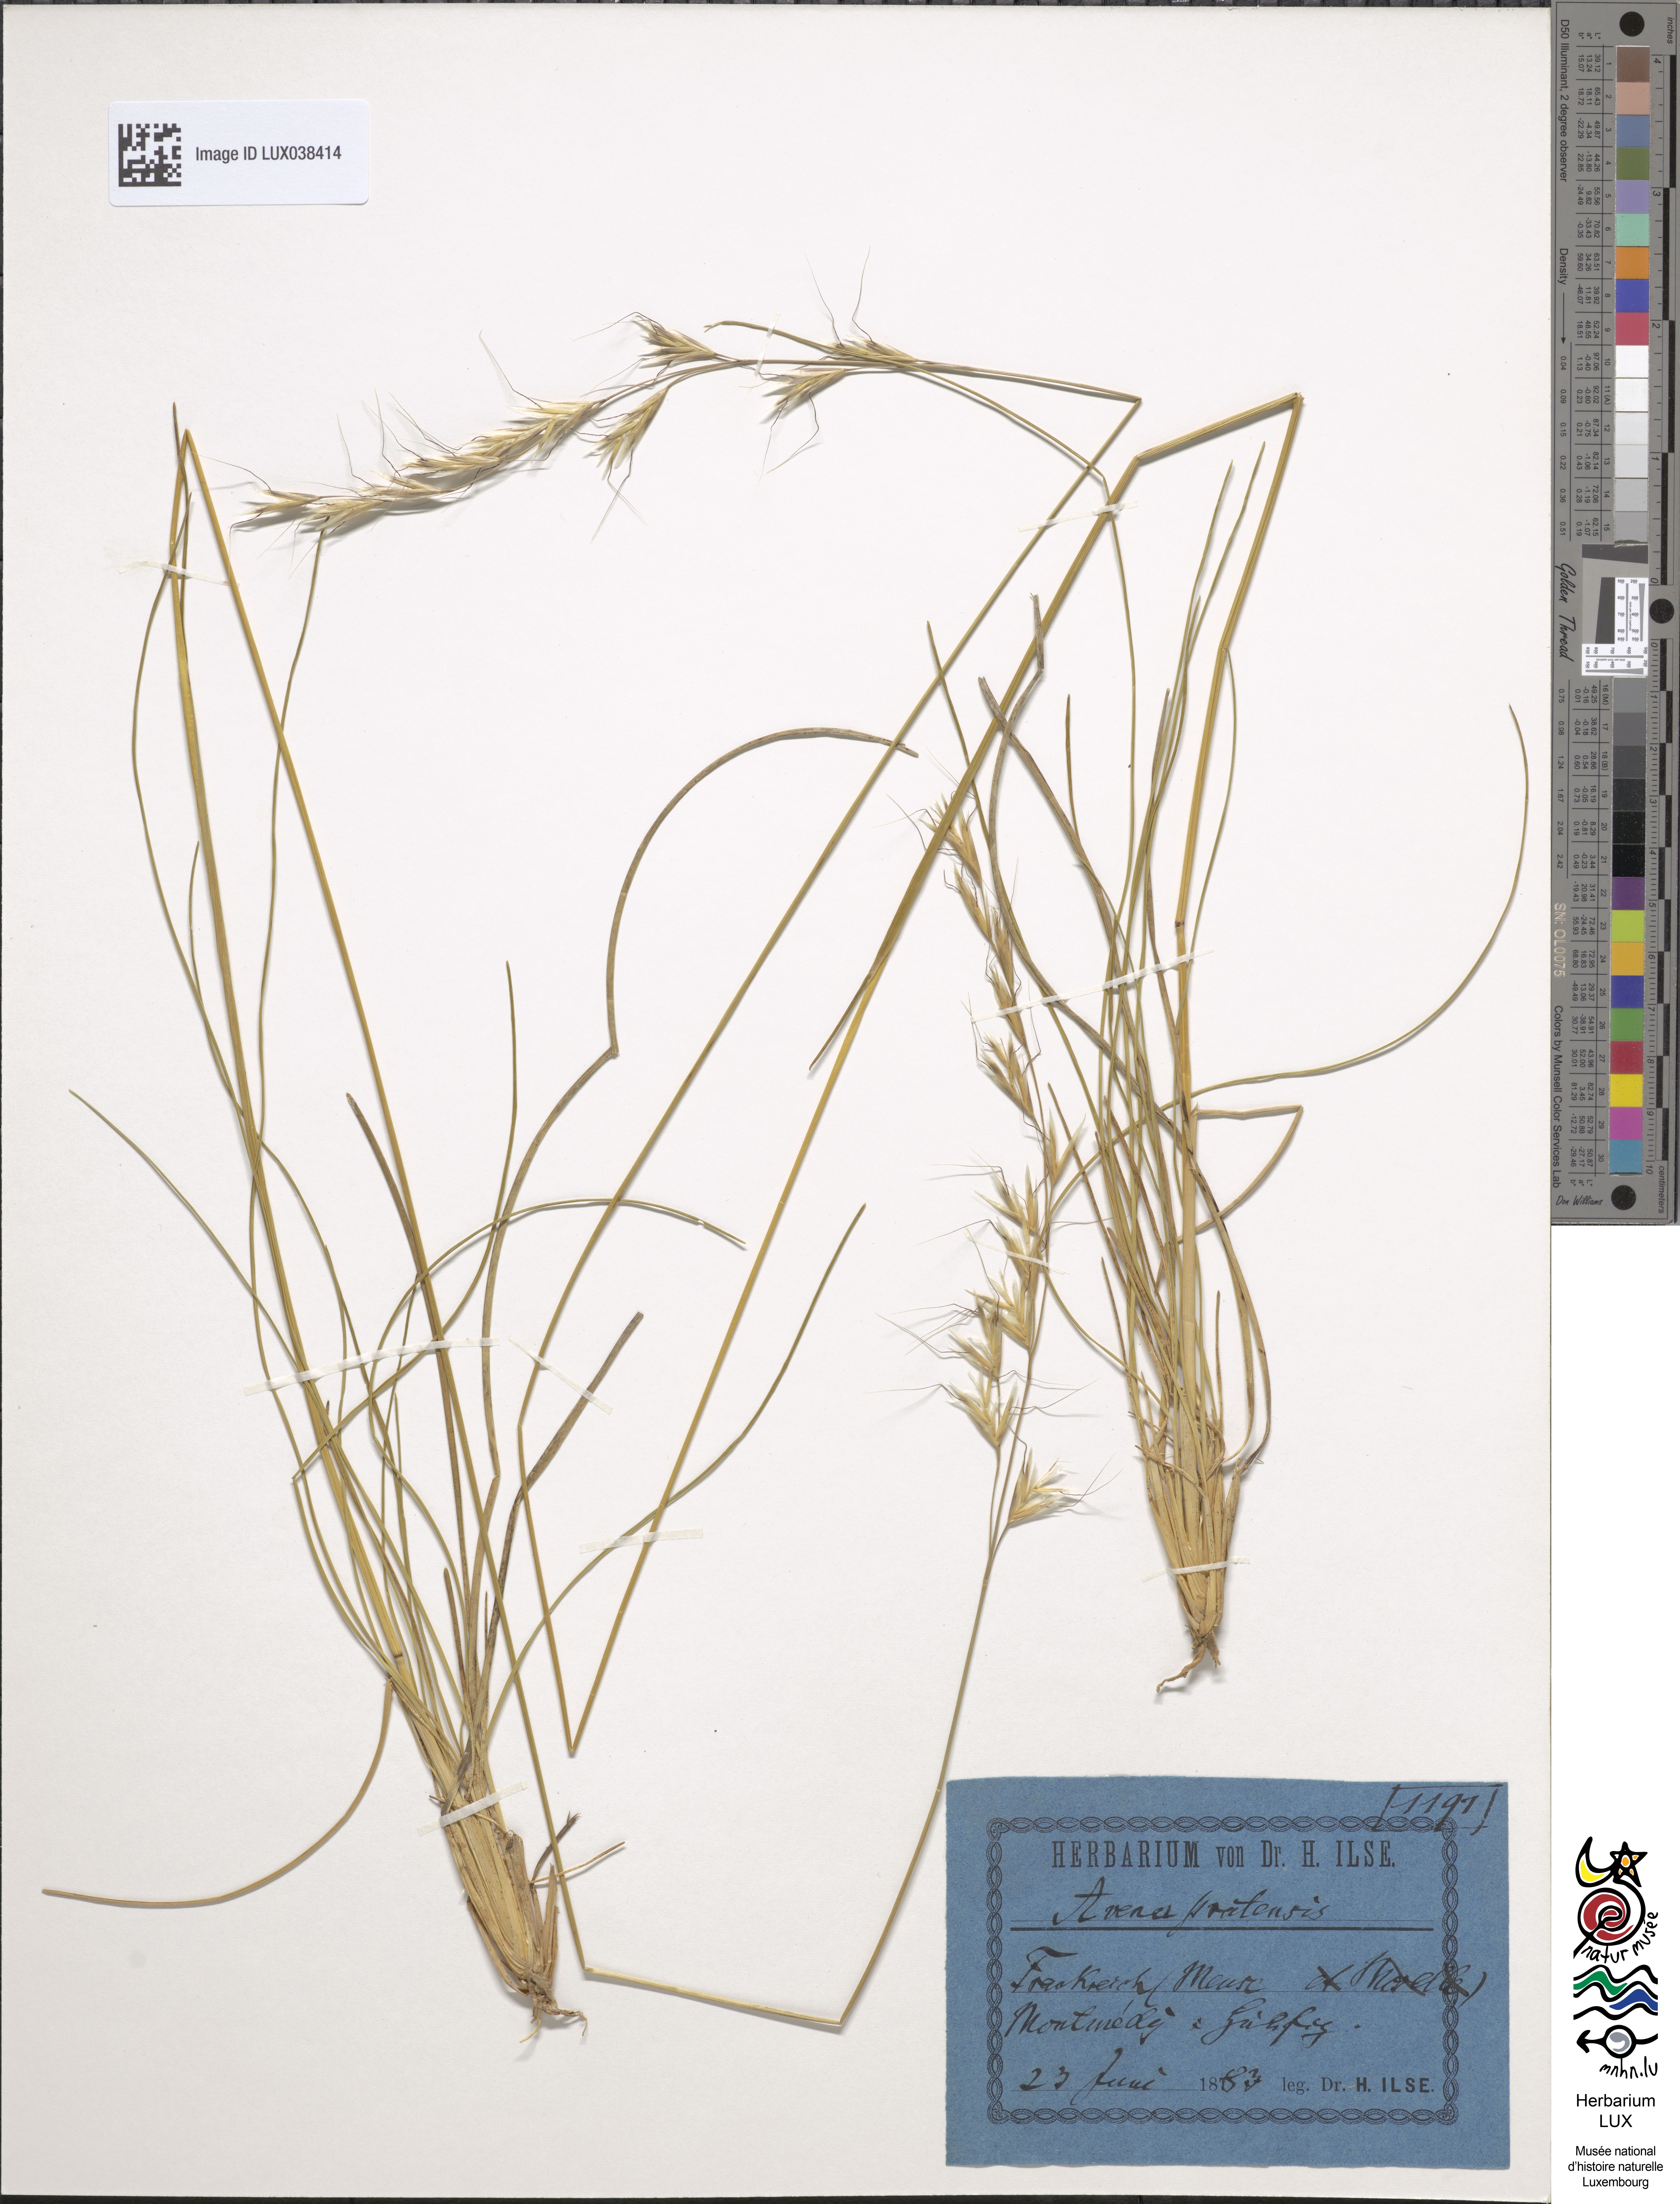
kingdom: Plantae
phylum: Tracheophyta
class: Liliopsida
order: Poales
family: Poaceae
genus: Helictochloa
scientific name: Helictochloa pratensis
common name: Meadow oat grass
